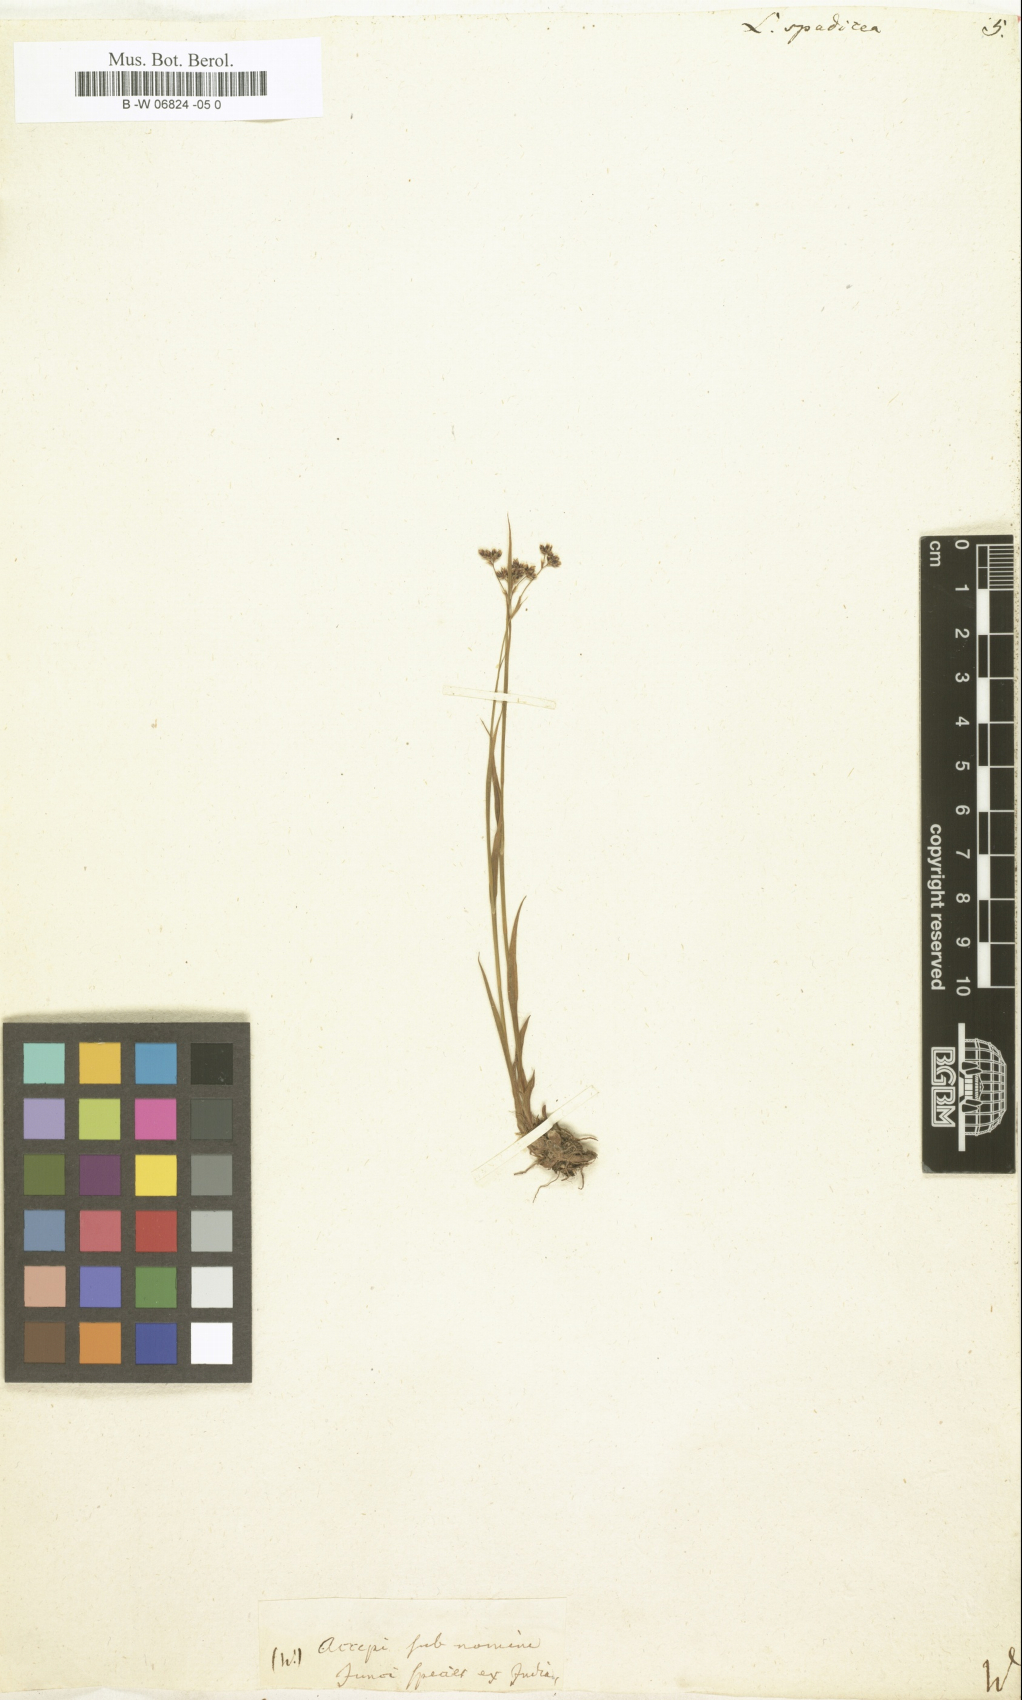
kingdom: Plantae
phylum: Tracheophyta
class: Liliopsida
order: Poales
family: Juncaceae
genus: Luzula
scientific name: Luzula
